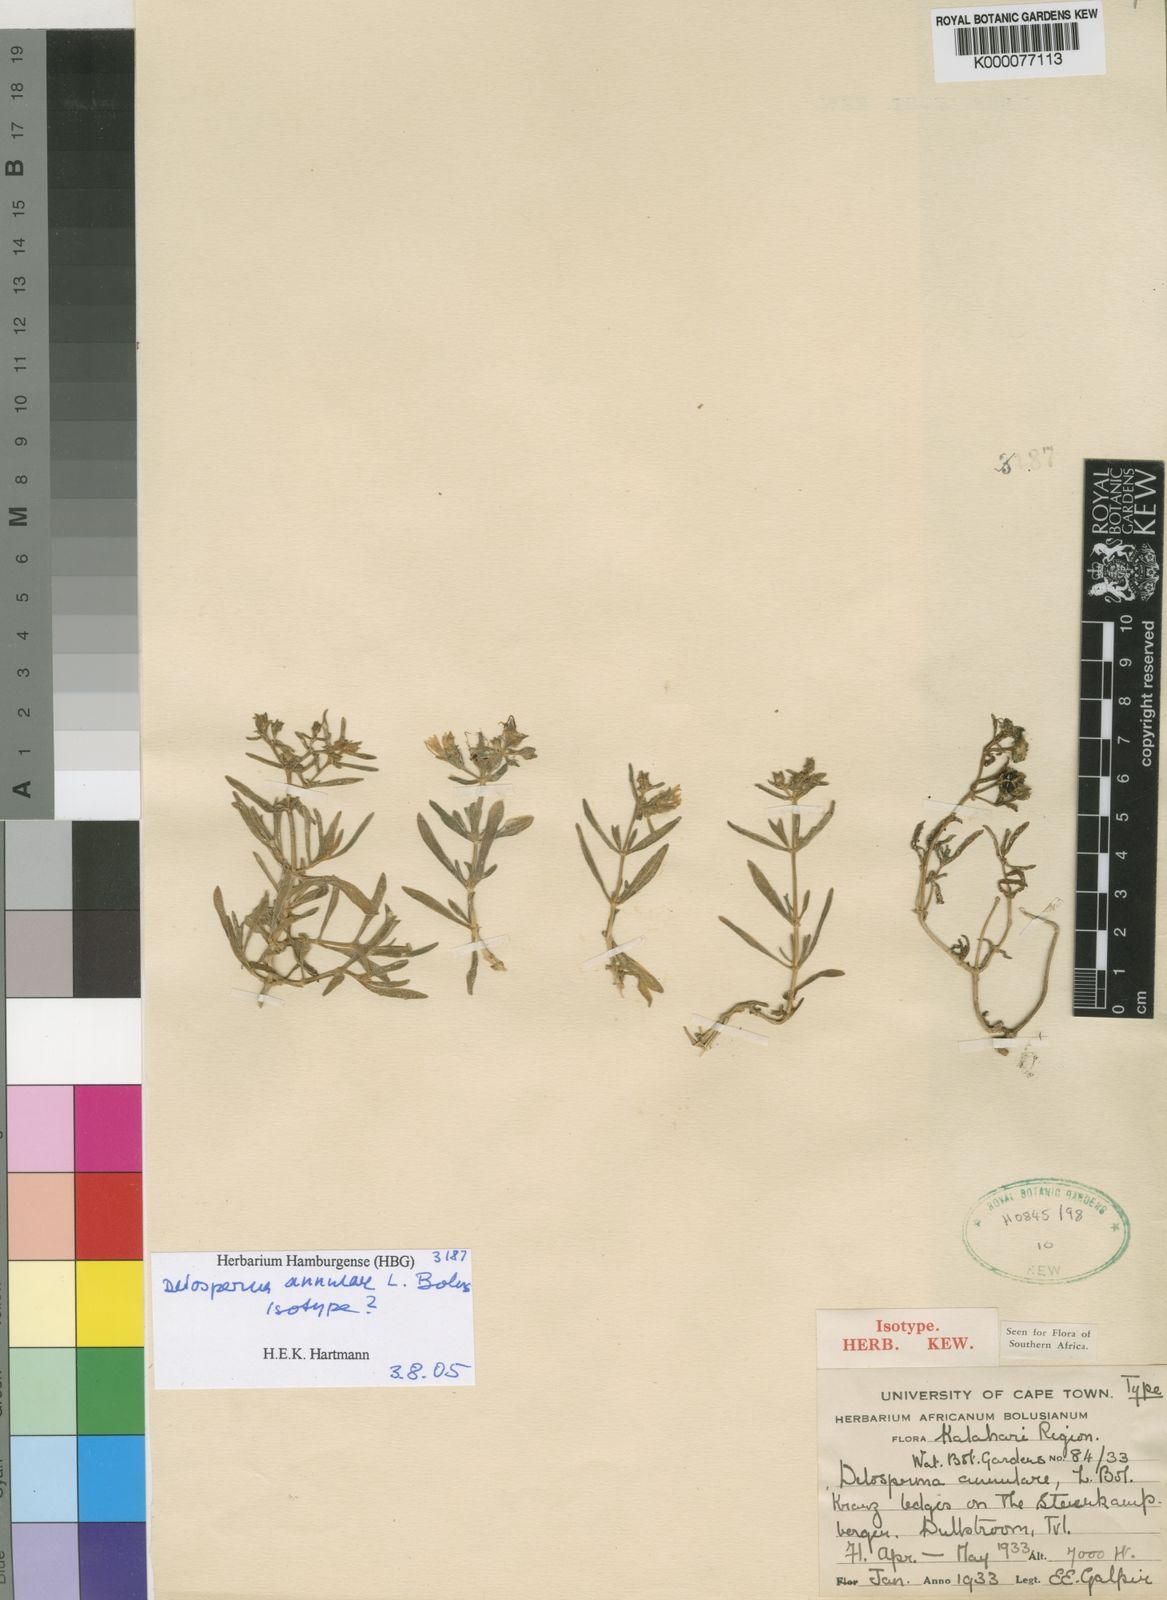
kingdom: Plantae
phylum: Tracheophyta
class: Magnoliopsida
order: Caryophyllales
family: Aizoaceae
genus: Delosperma
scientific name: Delosperma annulare
